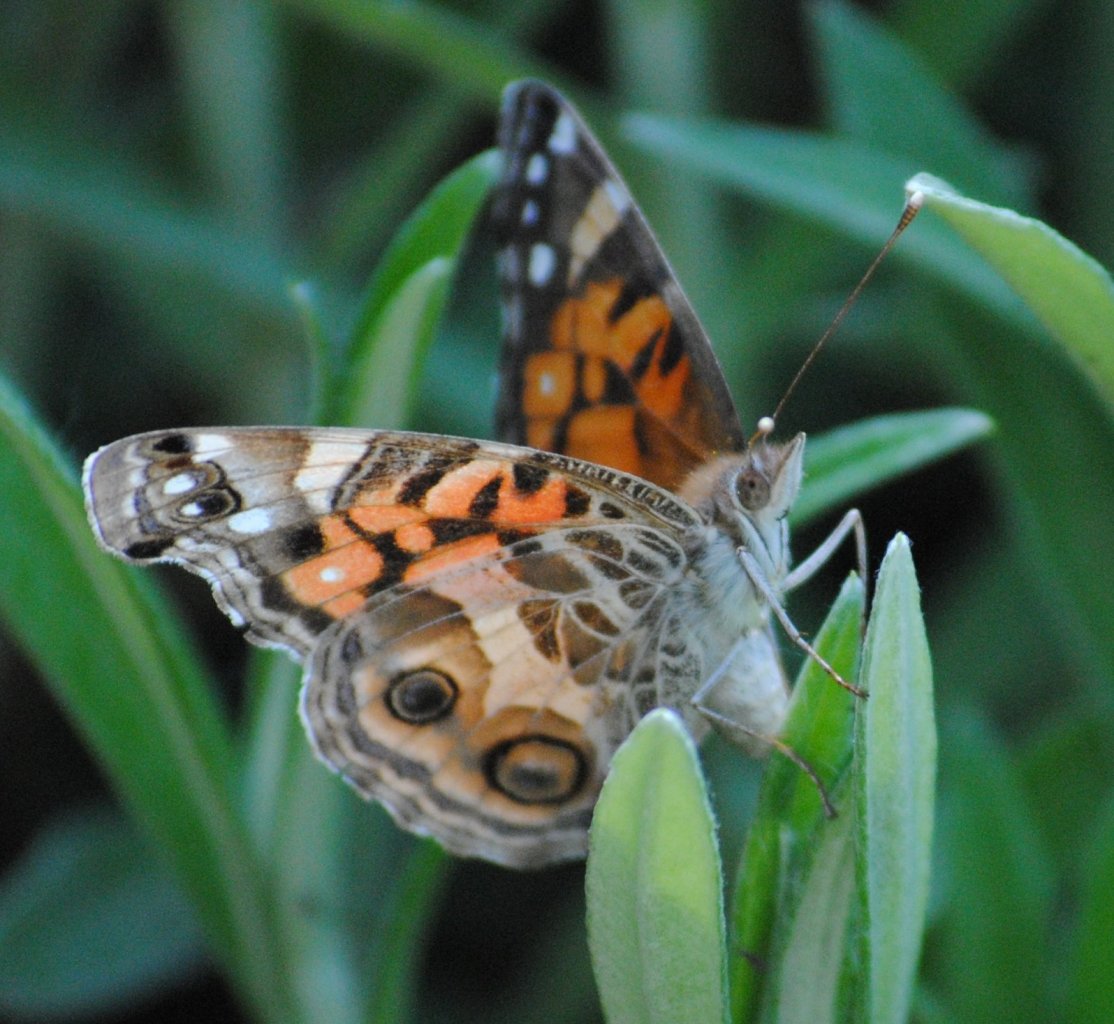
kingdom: Animalia
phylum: Arthropoda
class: Insecta
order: Lepidoptera
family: Nymphalidae
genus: Vanessa
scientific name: Vanessa virginiensis
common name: American Lady
